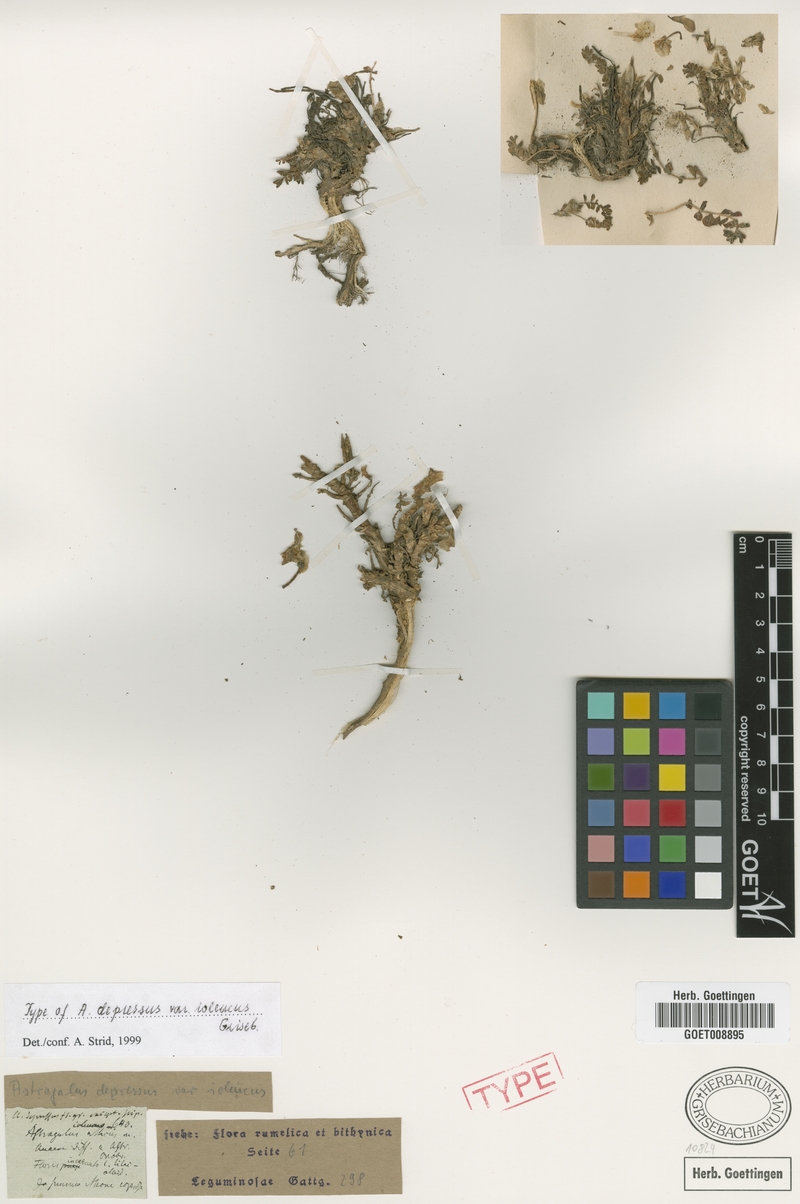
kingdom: Plantae
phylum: Tracheophyta
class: Magnoliopsida
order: Fabales
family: Fabaceae
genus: Astragalus
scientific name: Astragalus depressus
